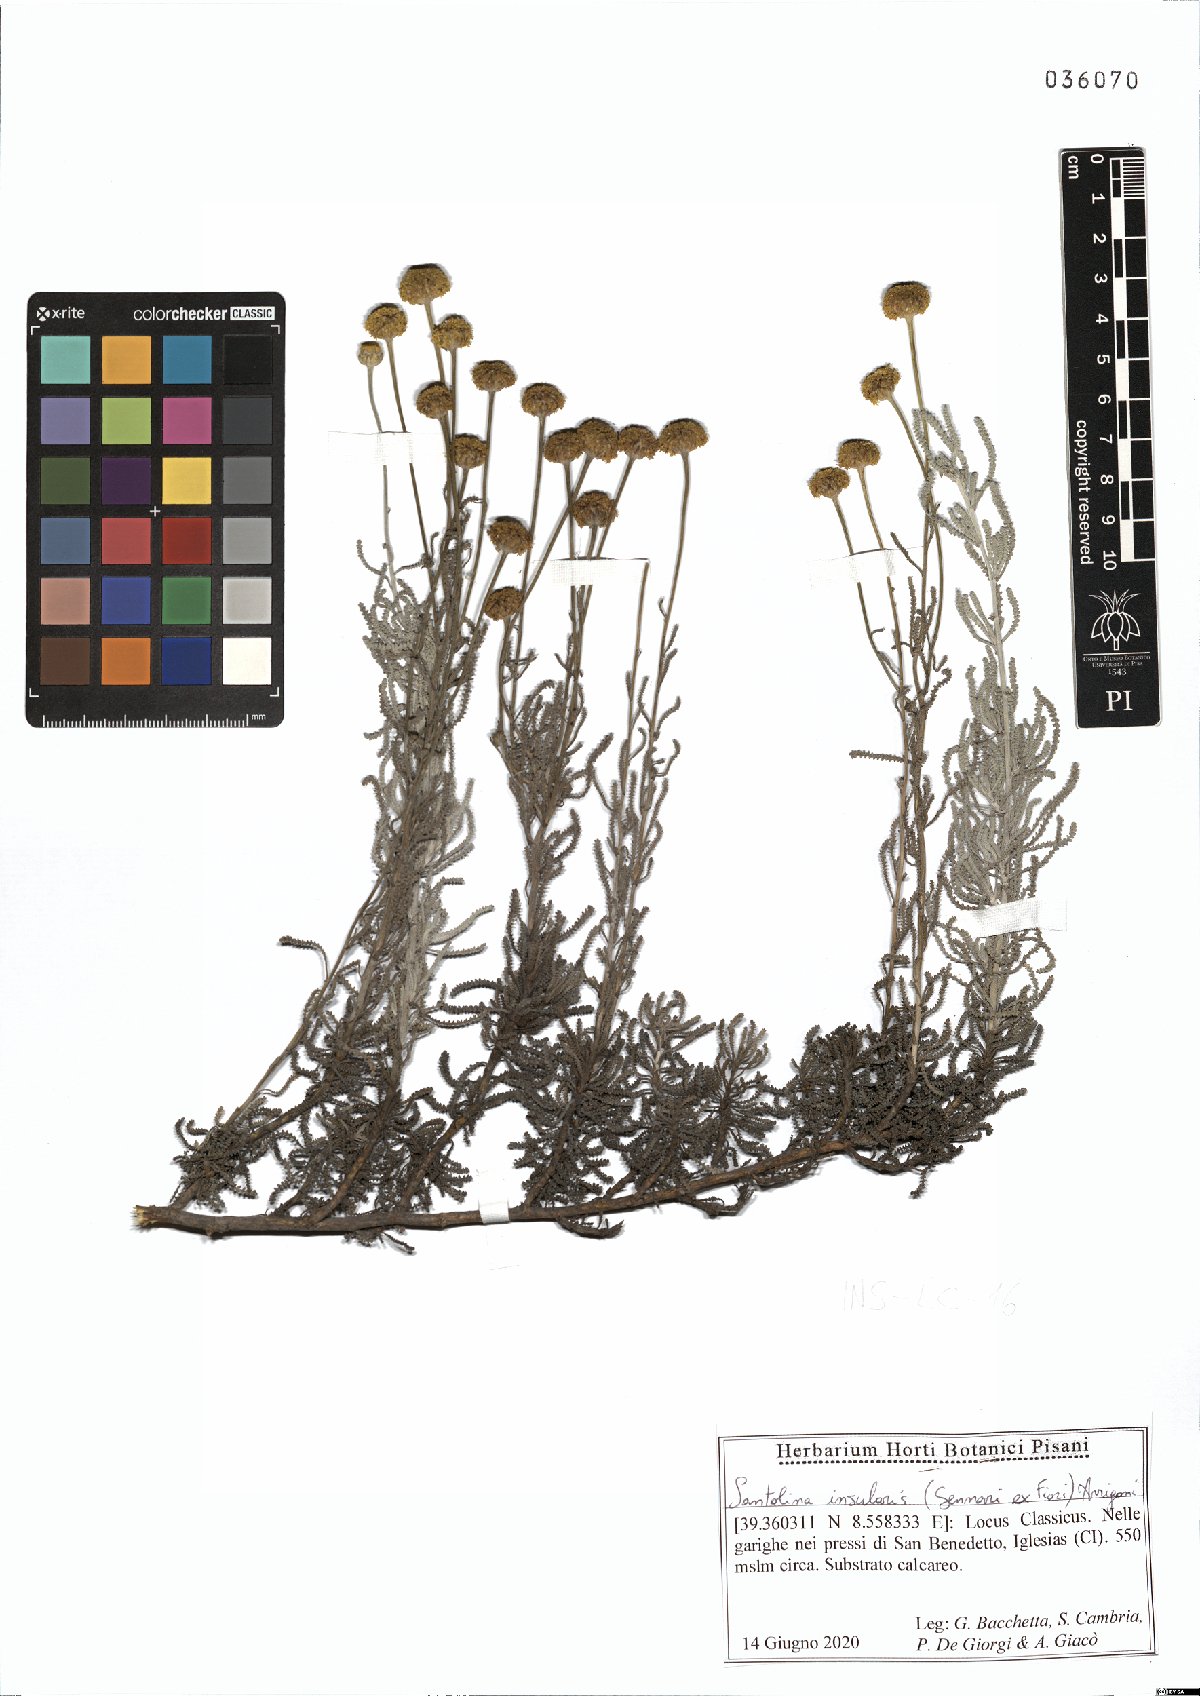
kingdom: Plantae
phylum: Tracheophyta
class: Magnoliopsida
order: Asterales
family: Asteraceae
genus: Santolina
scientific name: Santolina insularis
